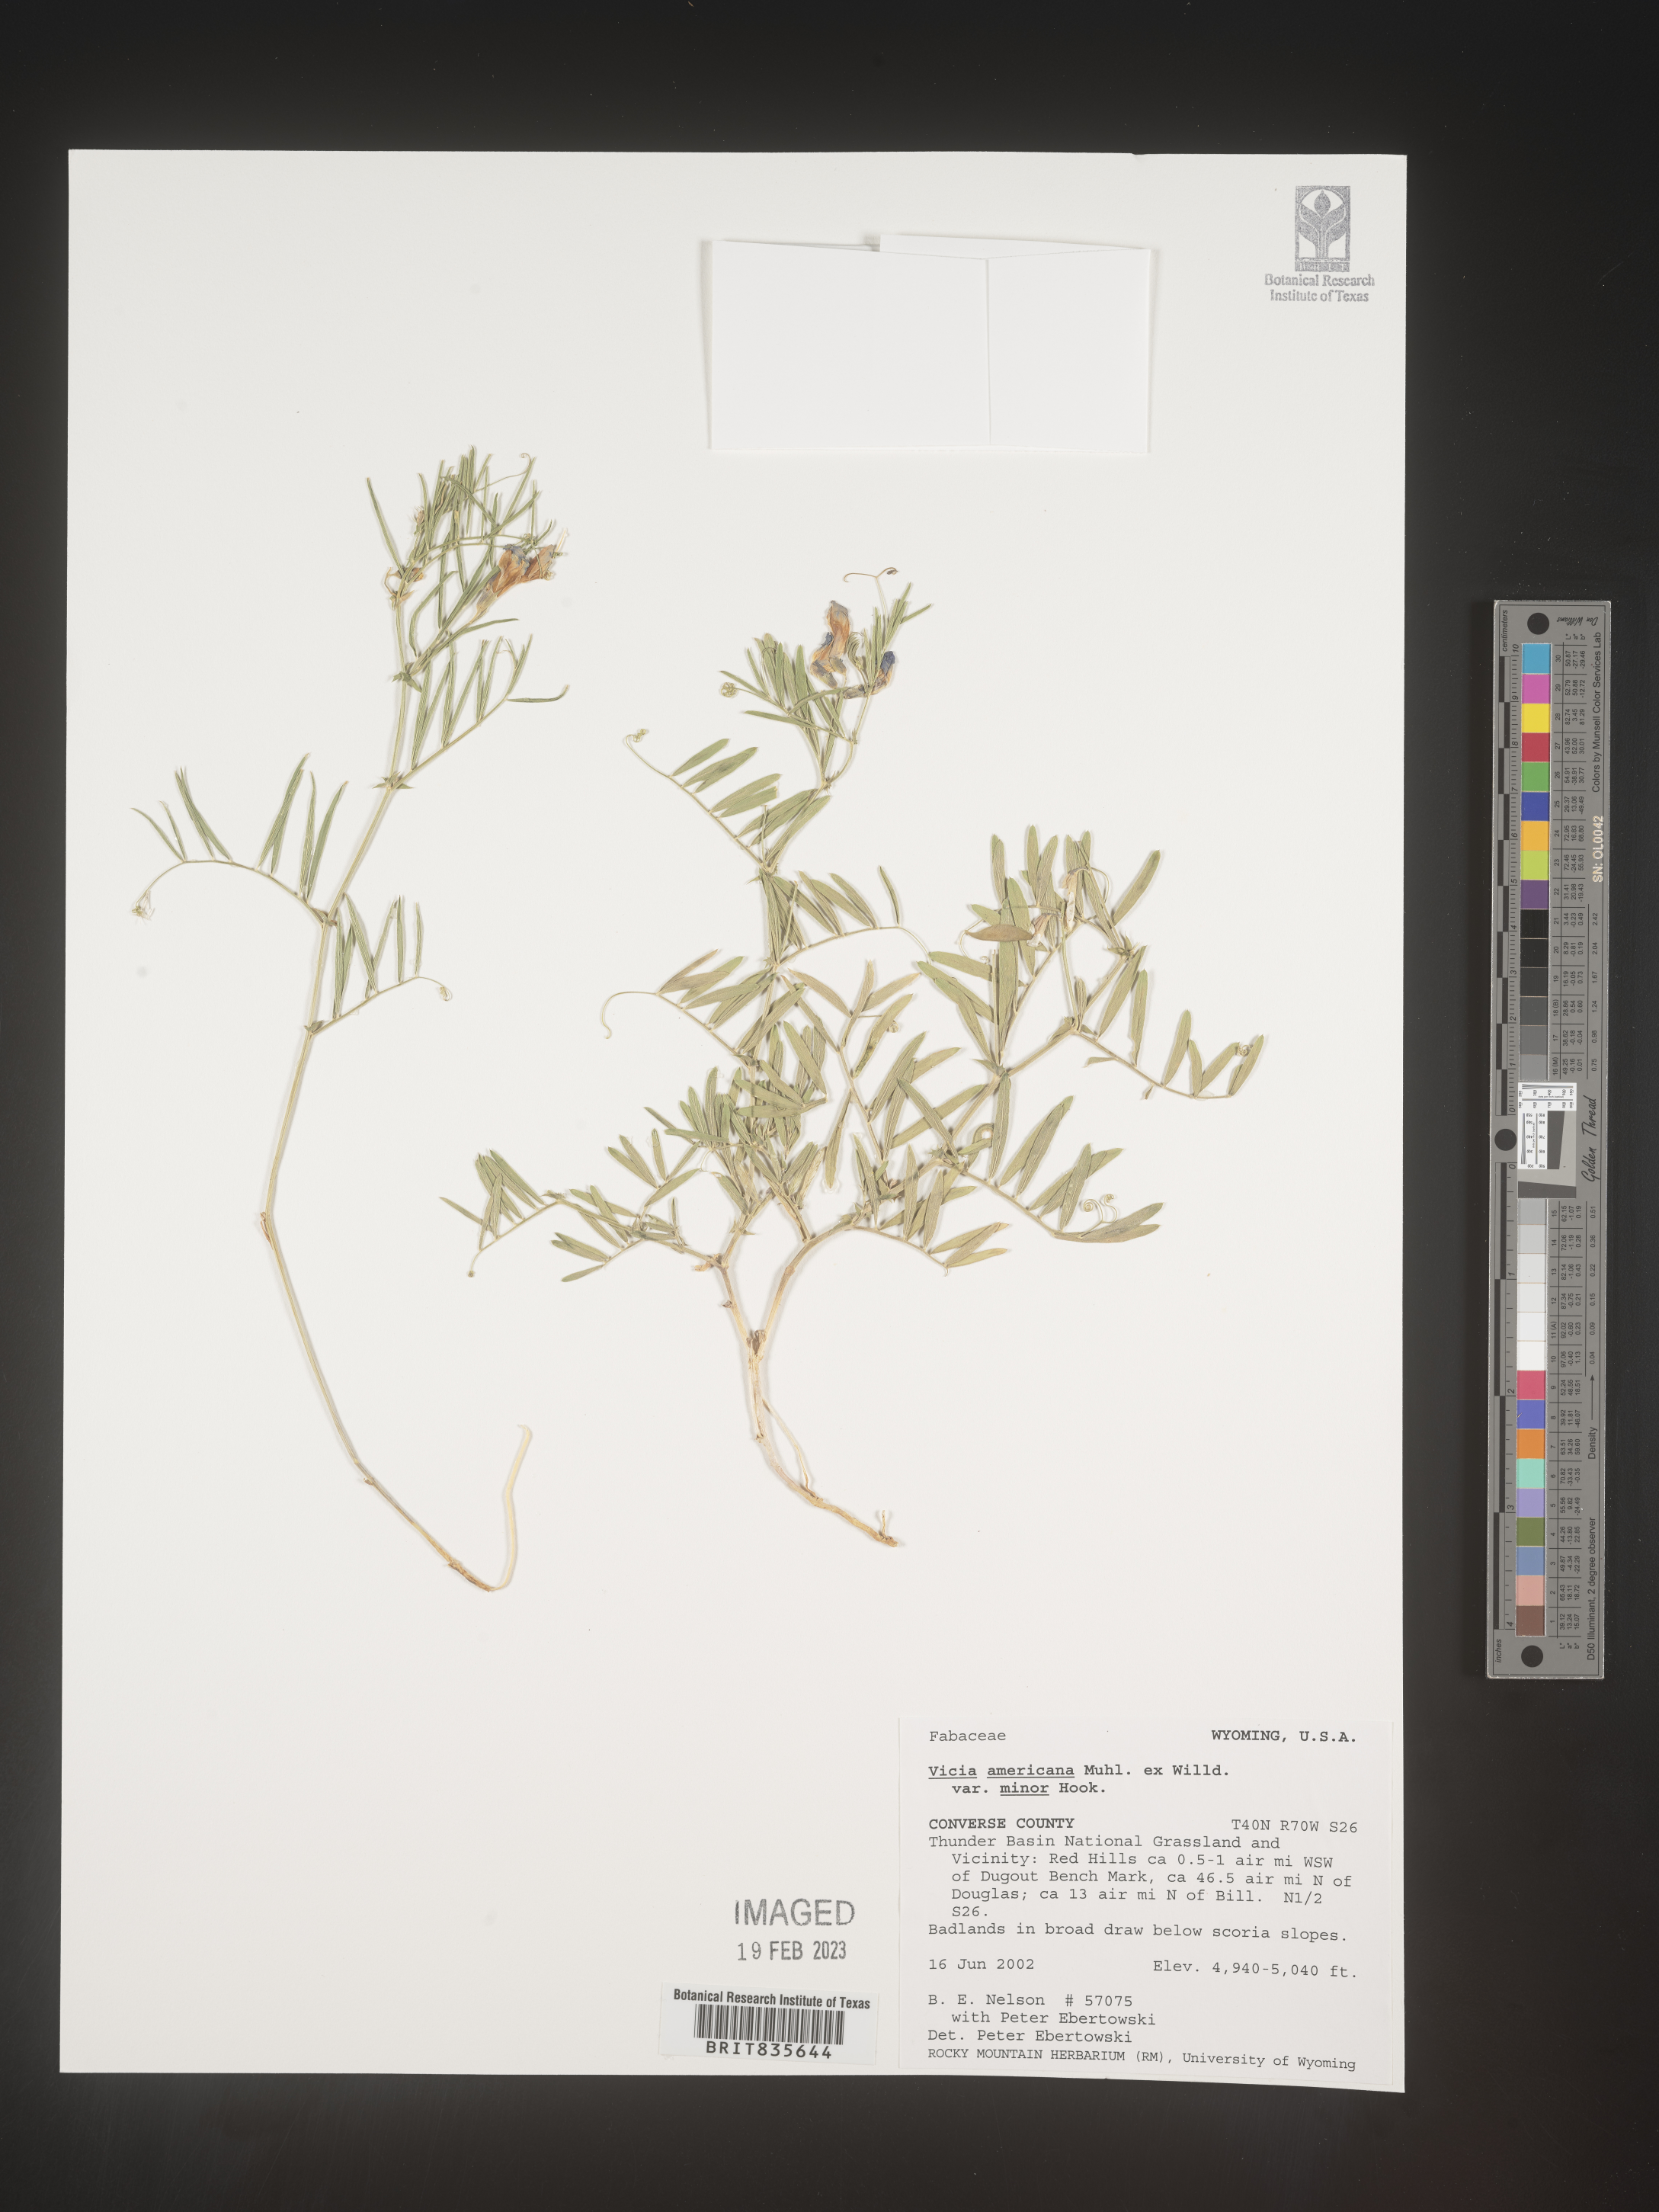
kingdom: Plantae
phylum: Tracheophyta
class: Magnoliopsida
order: Fabales
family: Fabaceae
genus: Vicia
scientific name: Vicia americana
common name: American vetch
